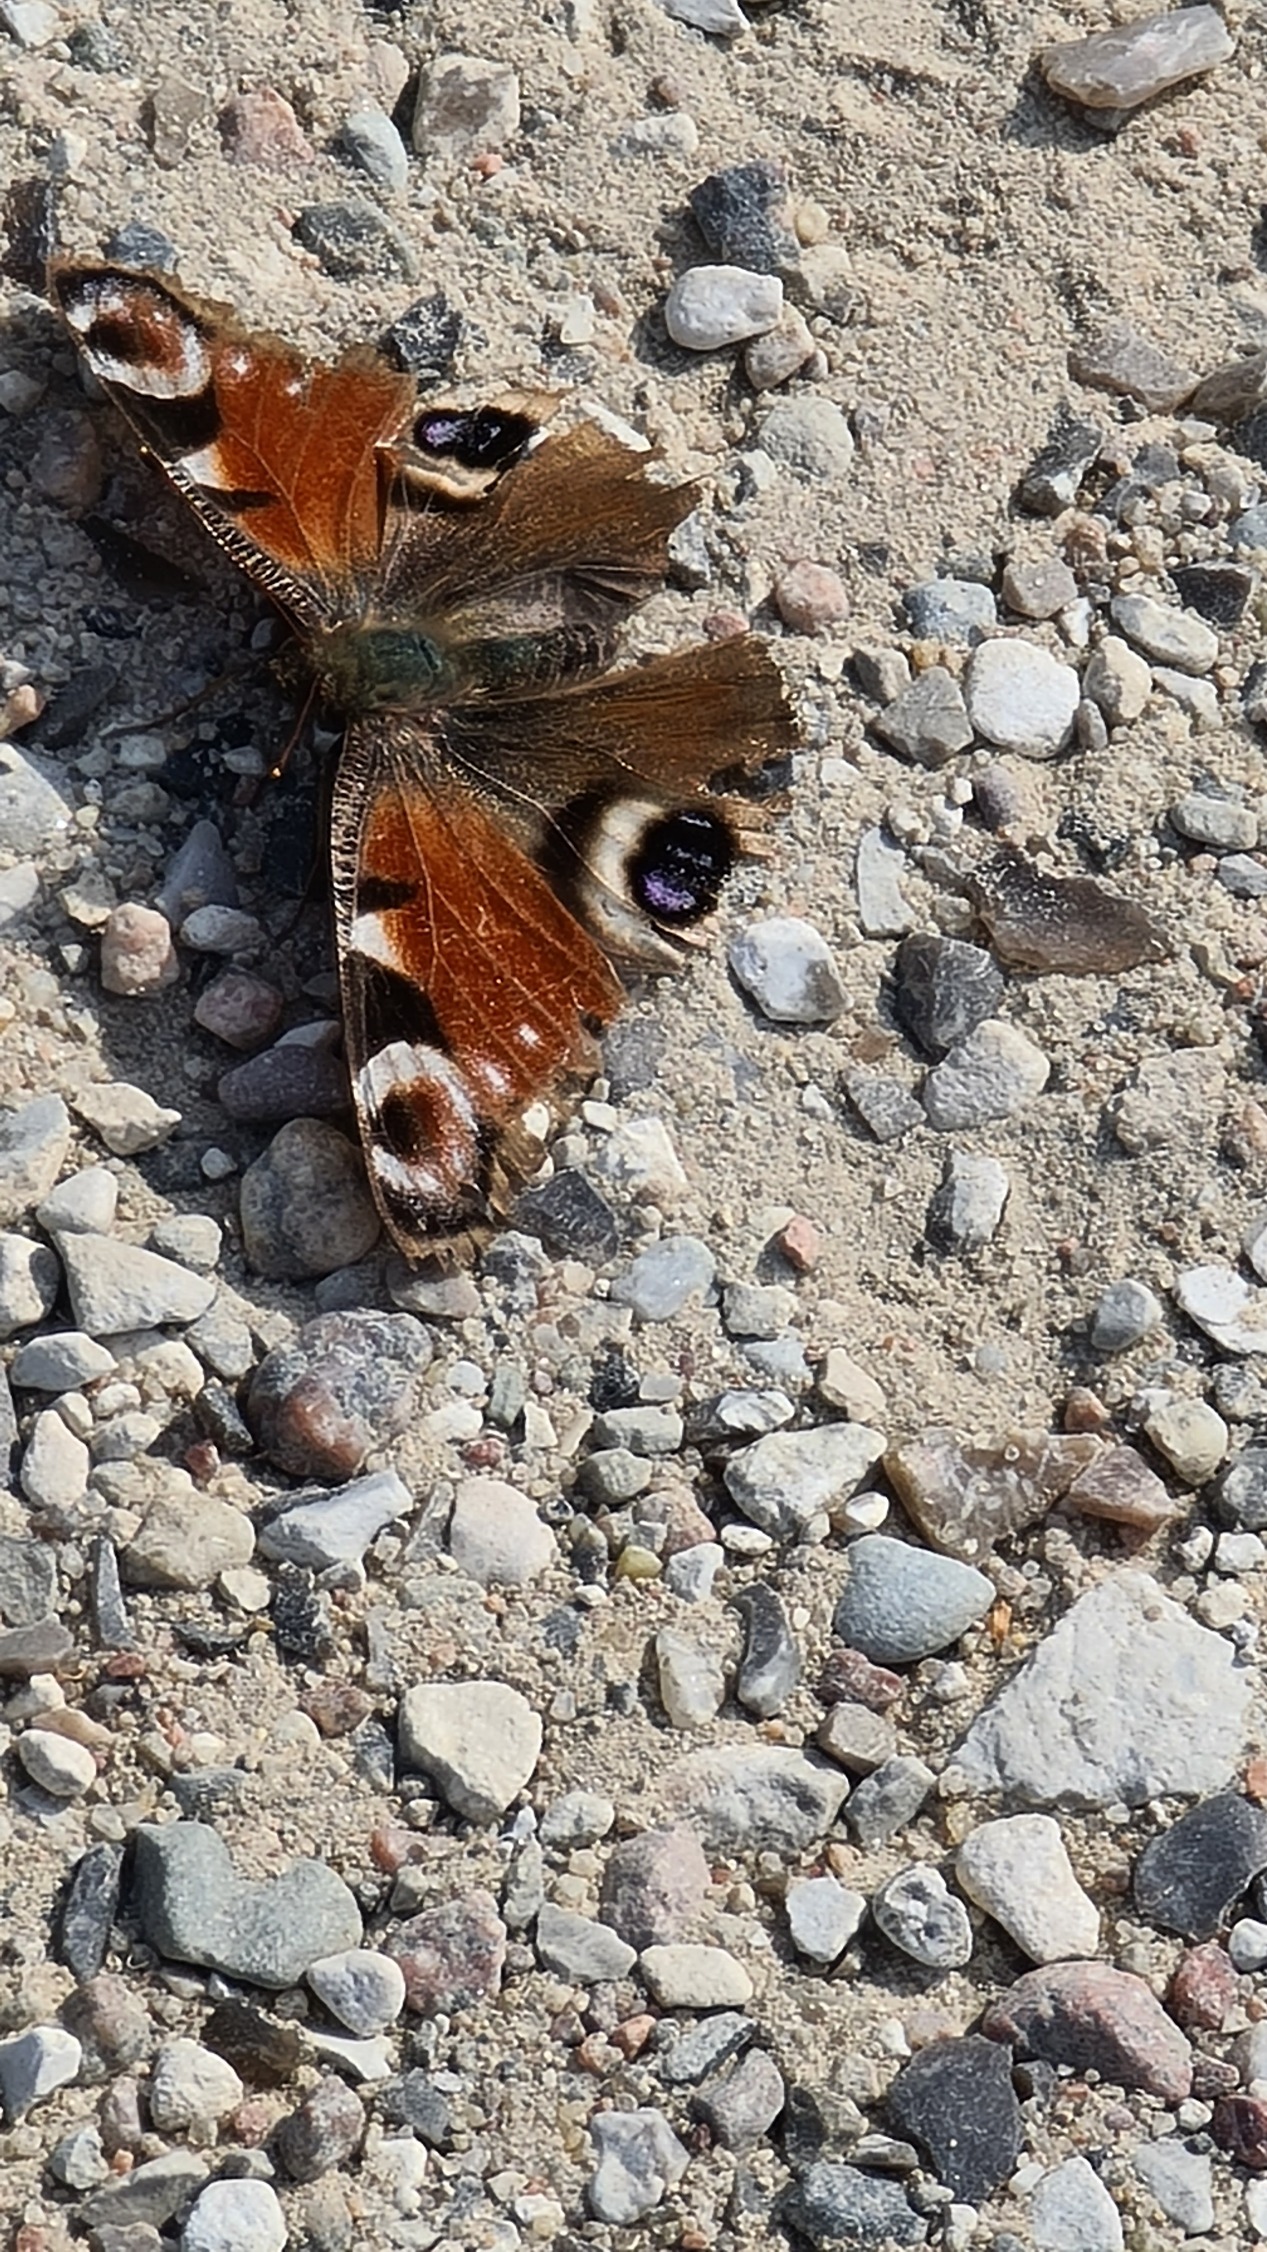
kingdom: Animalia
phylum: Arthropoda
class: Insecta
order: Lepidoptera
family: Nymphalidae
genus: Aglais
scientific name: Aglais io
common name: Dagpåfugleøje
